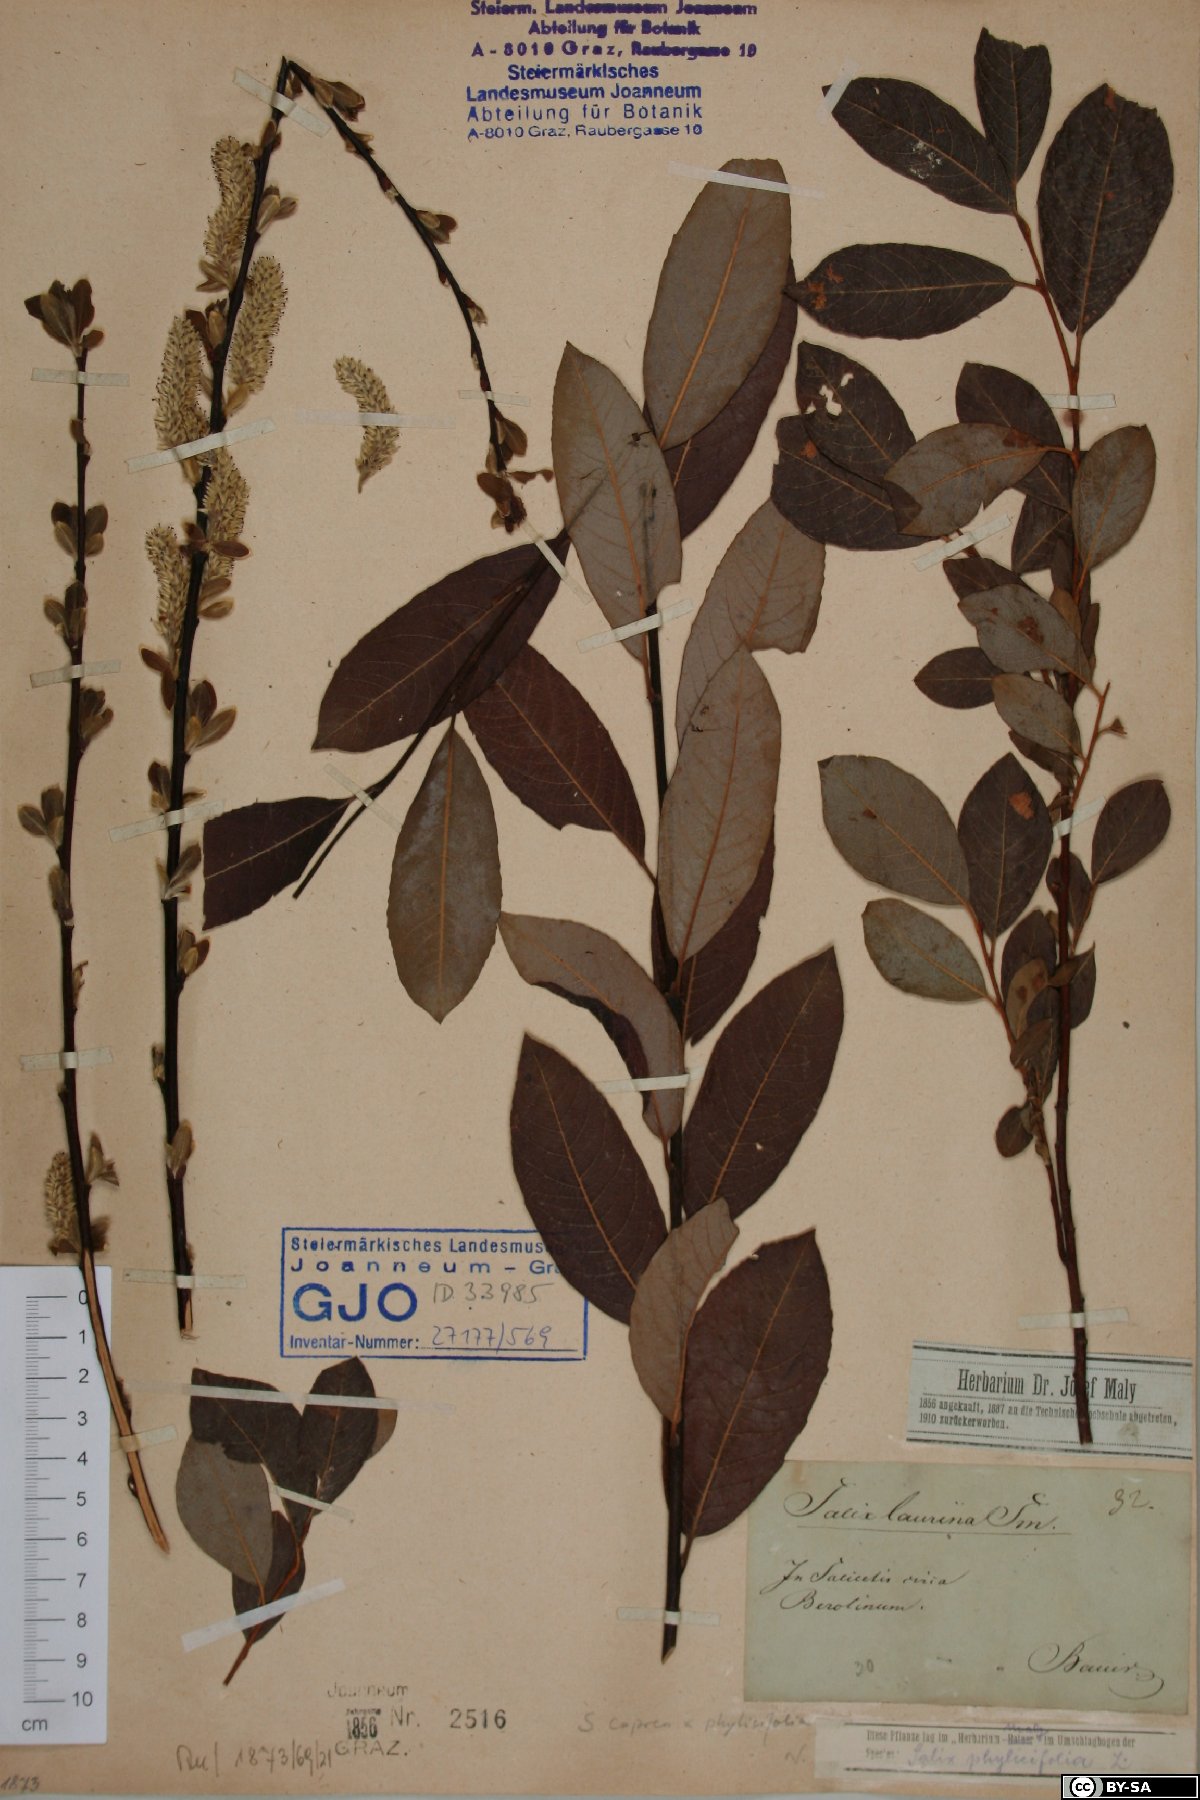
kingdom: Plantae
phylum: Tracheophyta
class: Magnoliopsida
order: Malpighiales
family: Salicaceae
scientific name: Salicaceae
